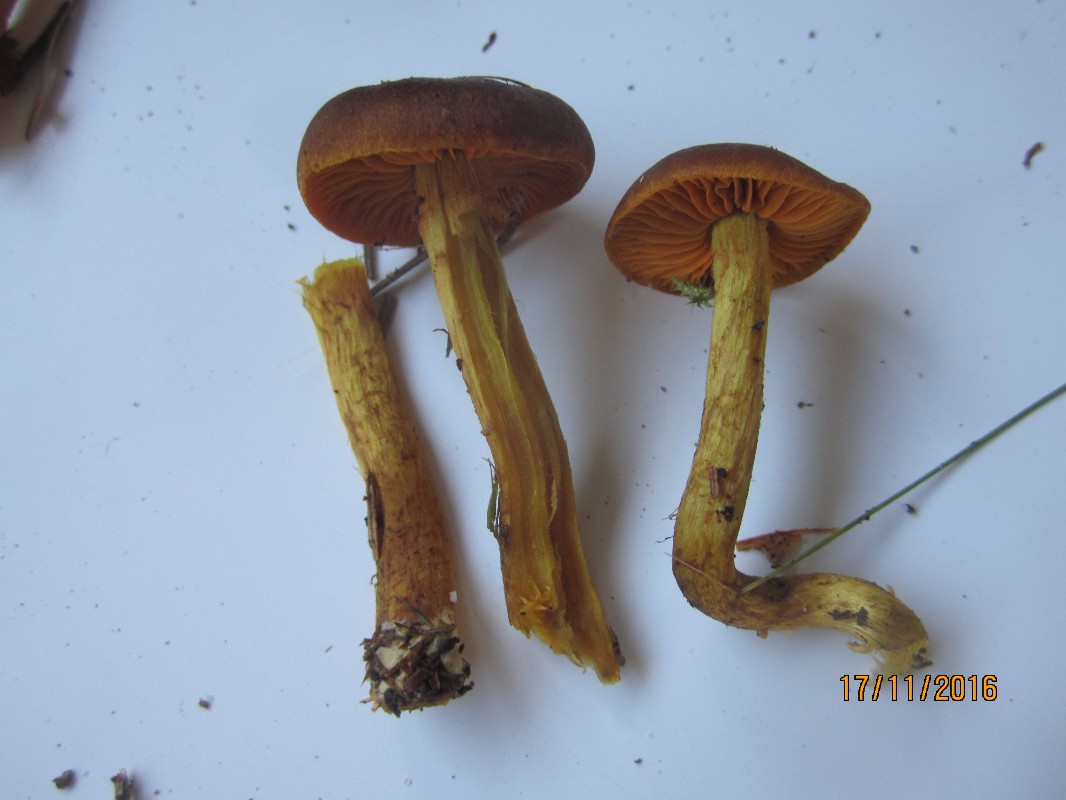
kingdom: Fungi
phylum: Basidiomycota
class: Agaricomycetes
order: Agaricales
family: Cortinariaceae
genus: Cortinarius
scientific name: Cortinarius
